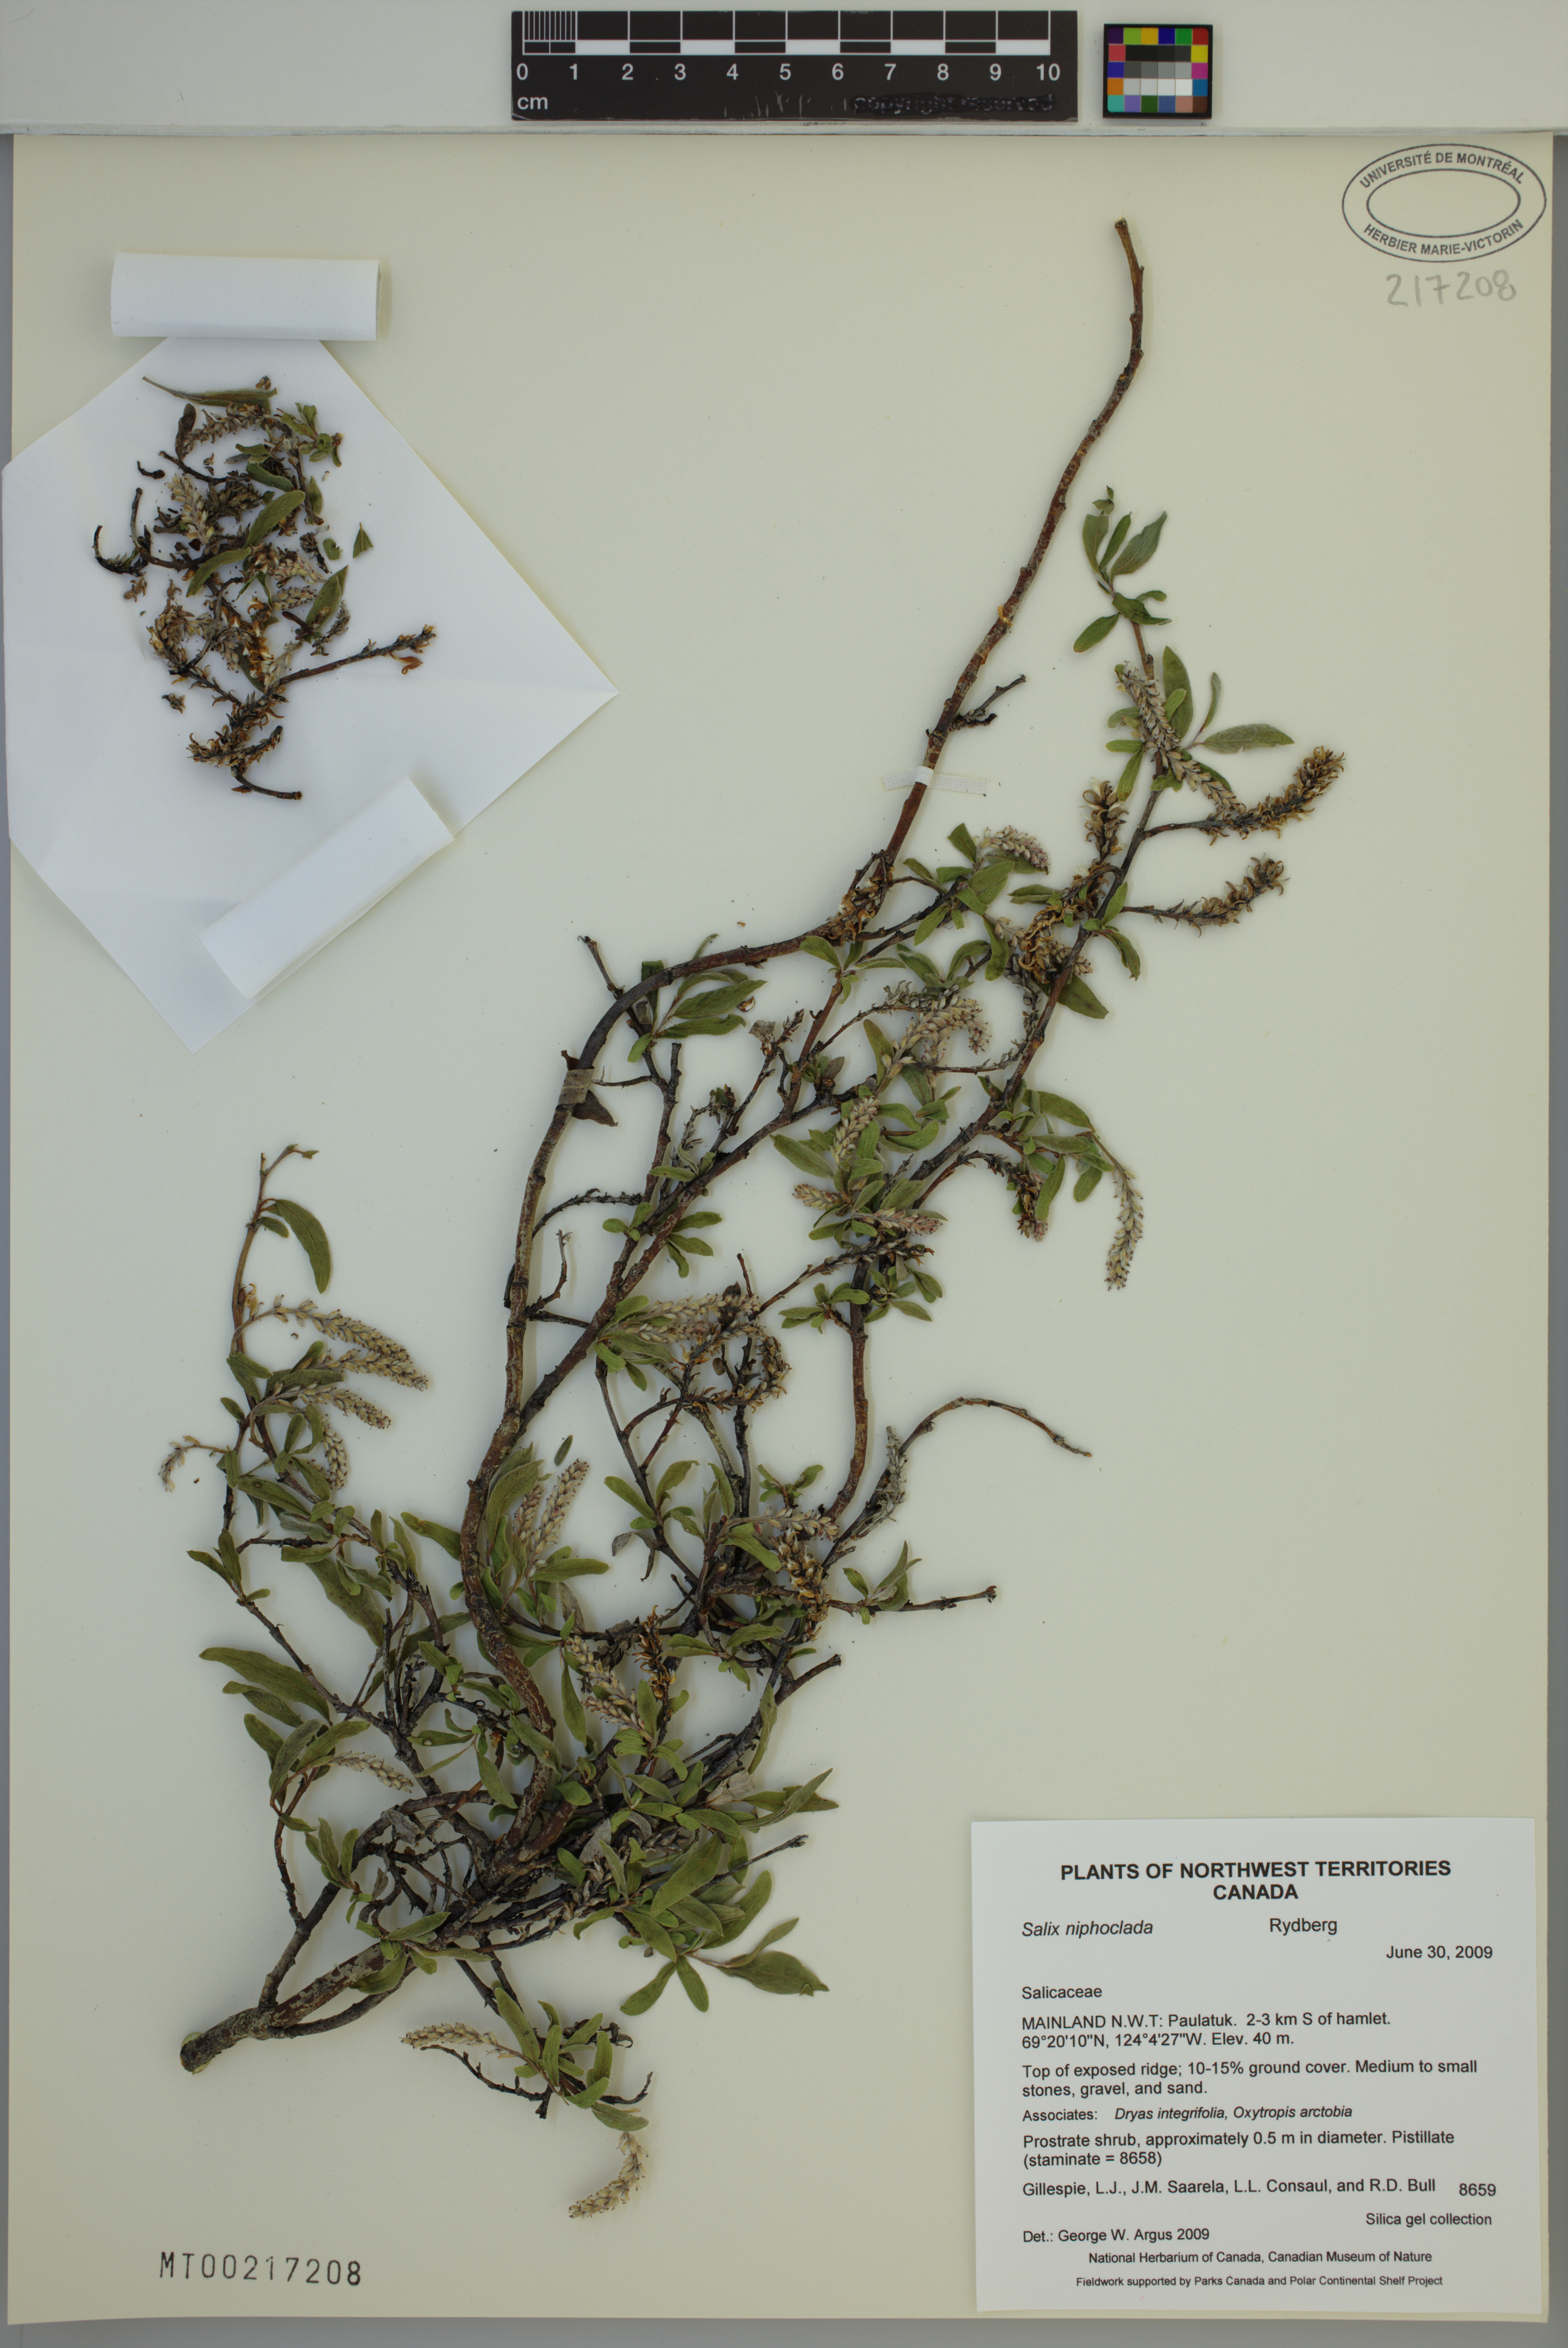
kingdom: Plantae
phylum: Tracheophyta
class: Magnoliopsida
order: Malpighiales
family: Salicaceae
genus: Salix
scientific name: Salix niphoclada
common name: Barren-ground willow
